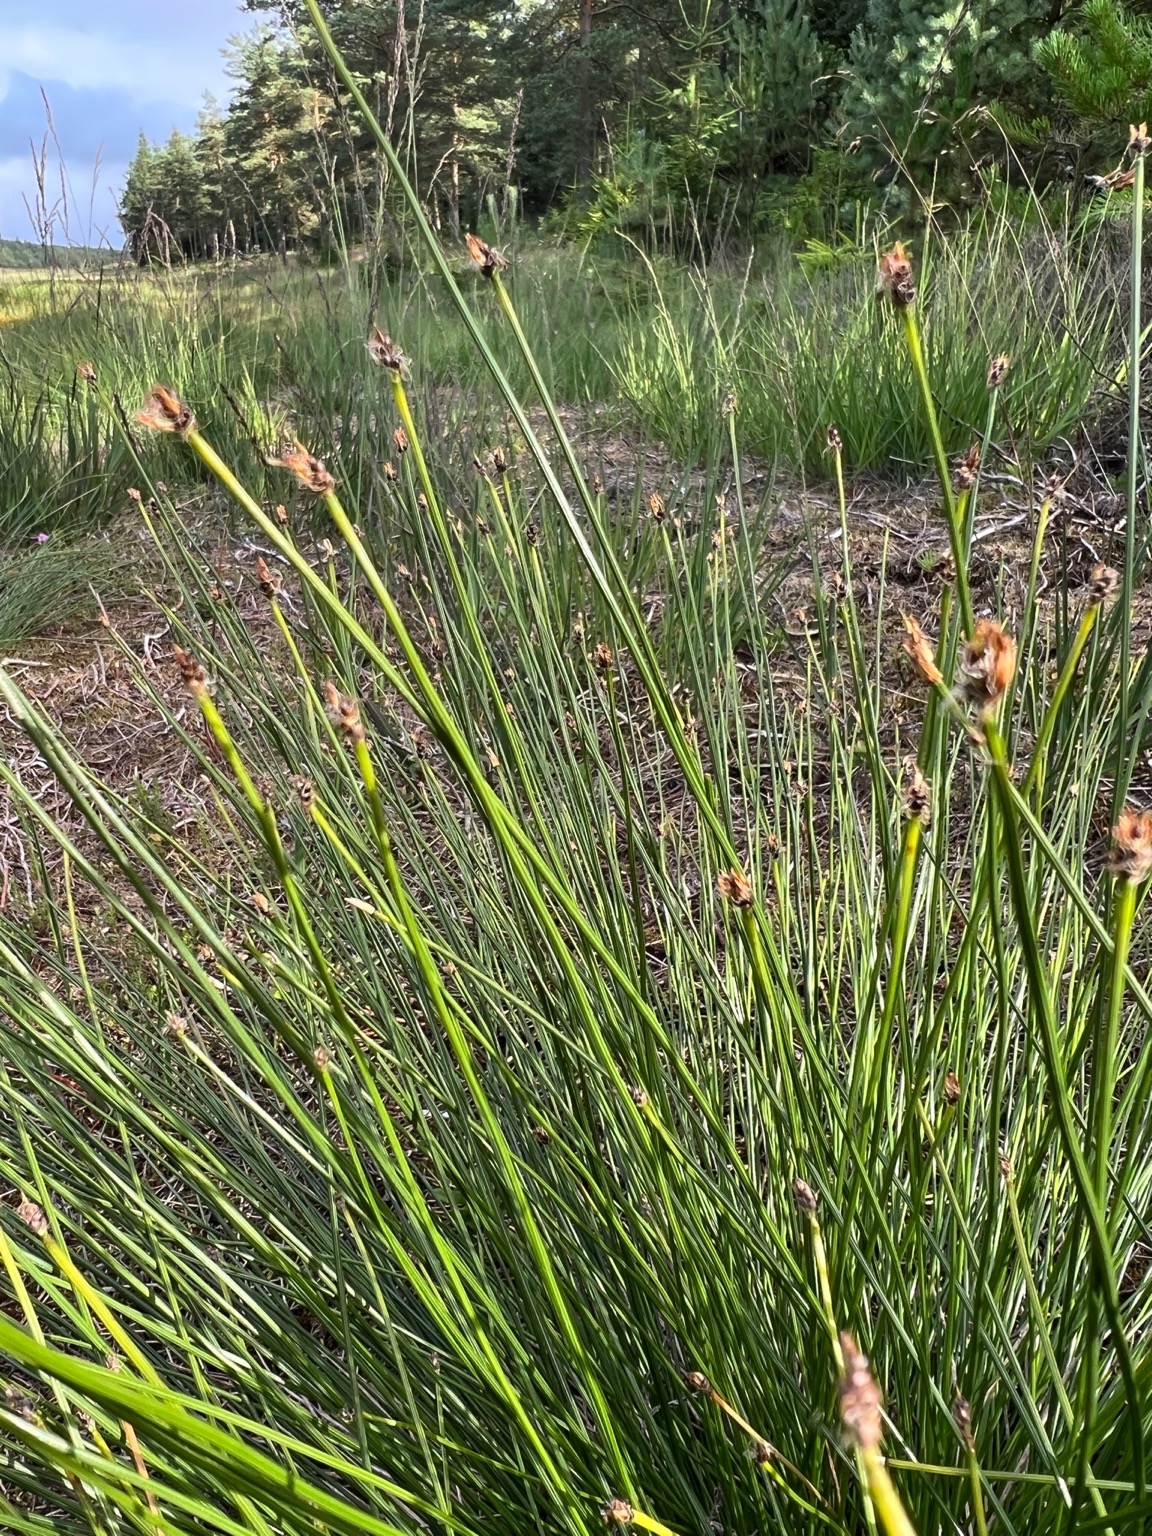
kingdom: Plantae
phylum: Tracheophyta
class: Liliopsida
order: Poales
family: Cyperaceae
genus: Eleocharis
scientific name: Eleocharis palustris
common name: Almindelig sumpstrå
